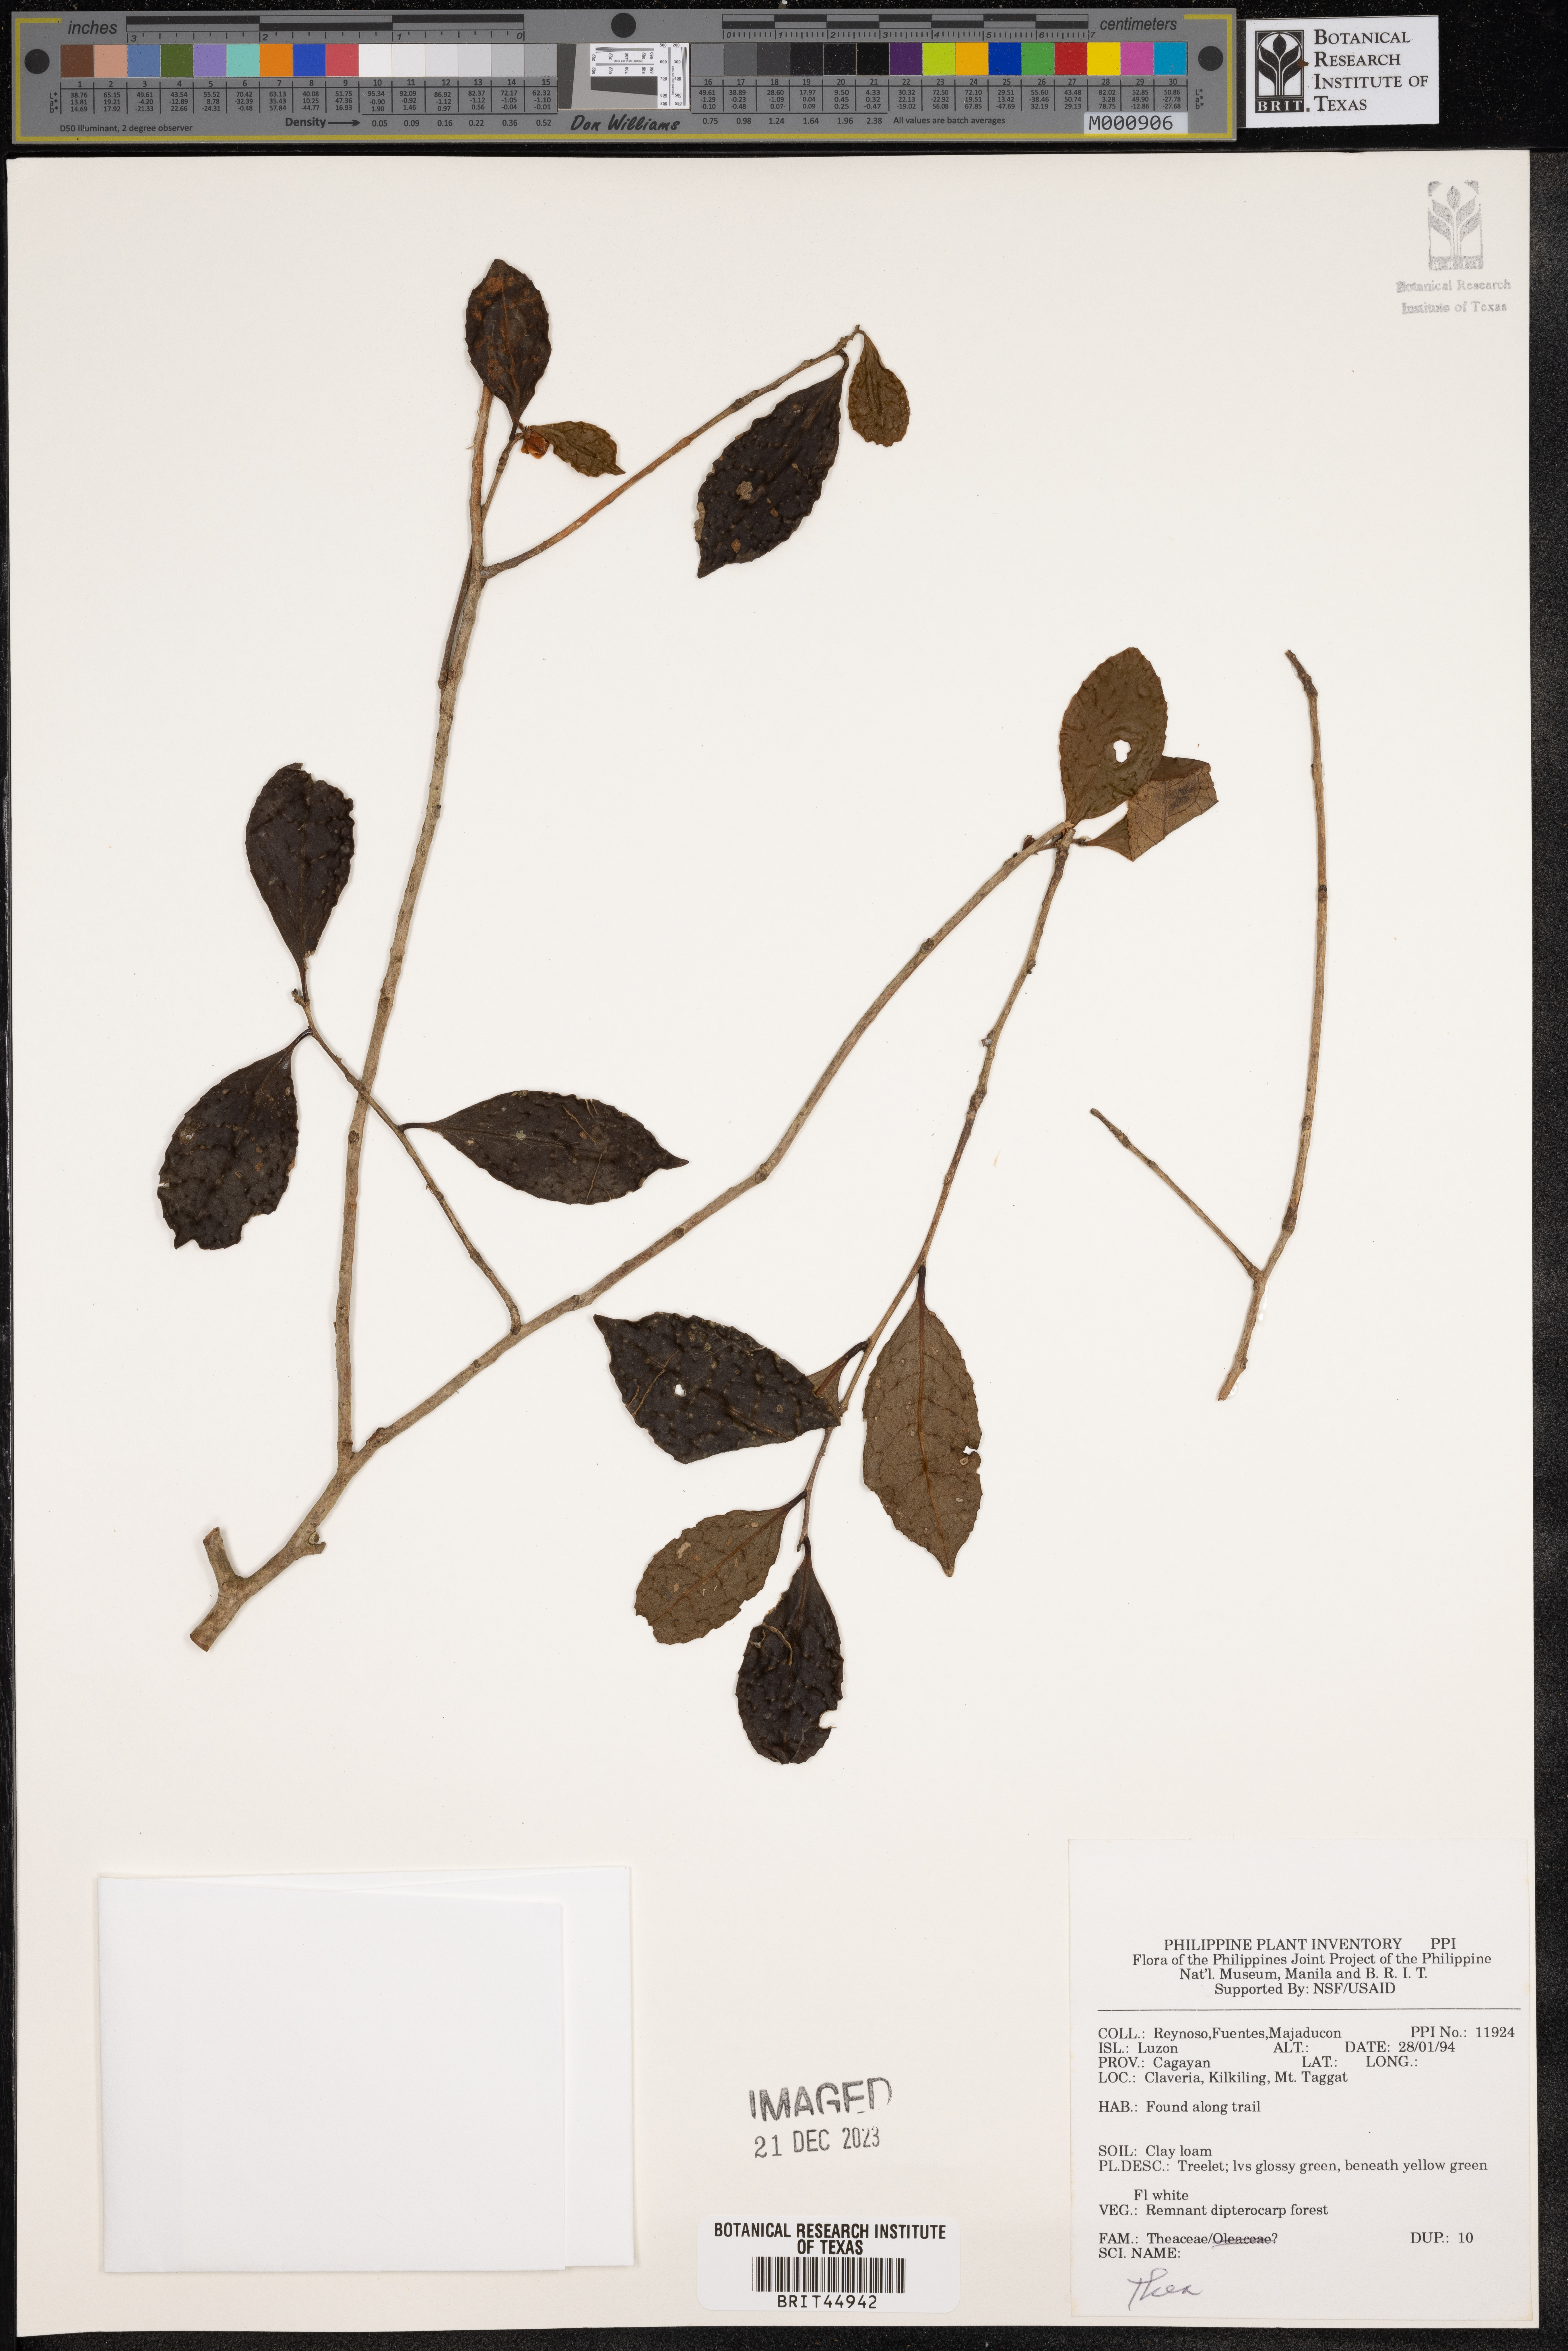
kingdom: Plantae
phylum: Tracheophyta
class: Magnoliopsida
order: Ericales
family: Theaceae
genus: Camellia
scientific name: Camellia
